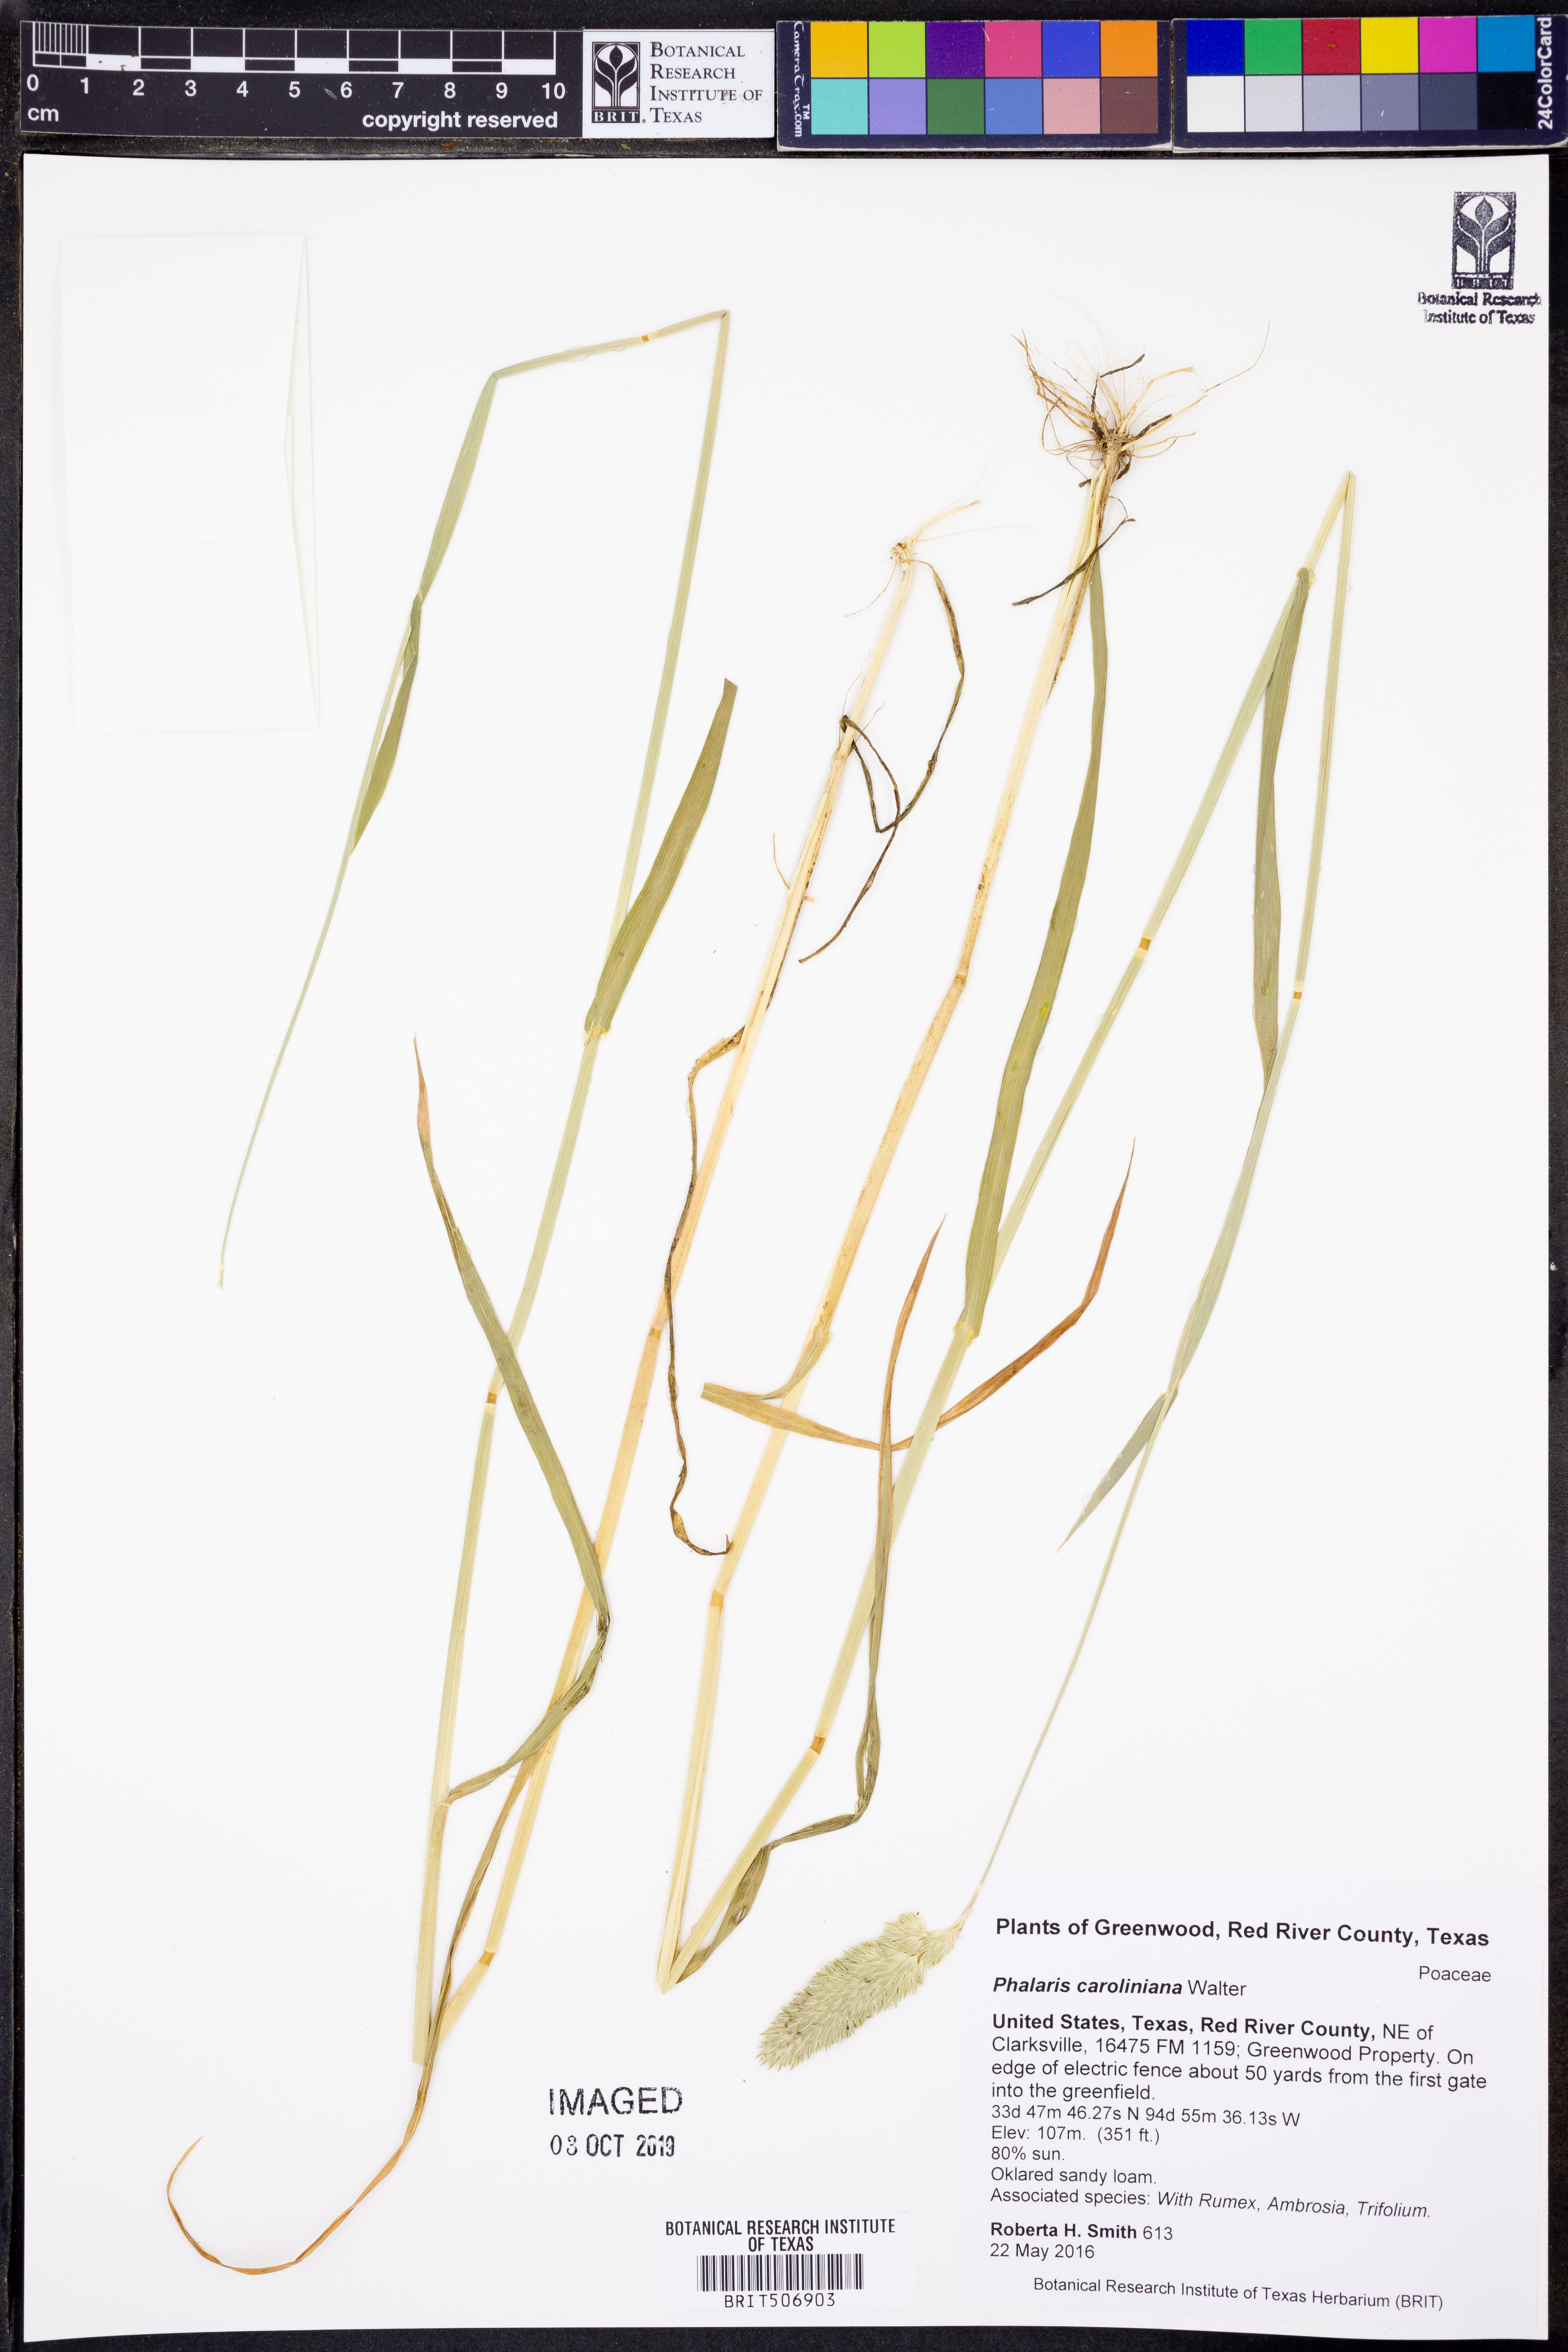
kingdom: Plantae
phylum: Tracheophyta
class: Liliopsida
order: Poales
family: Poaceae
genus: Phalaris
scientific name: Phalaris caroliniana
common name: May grass
